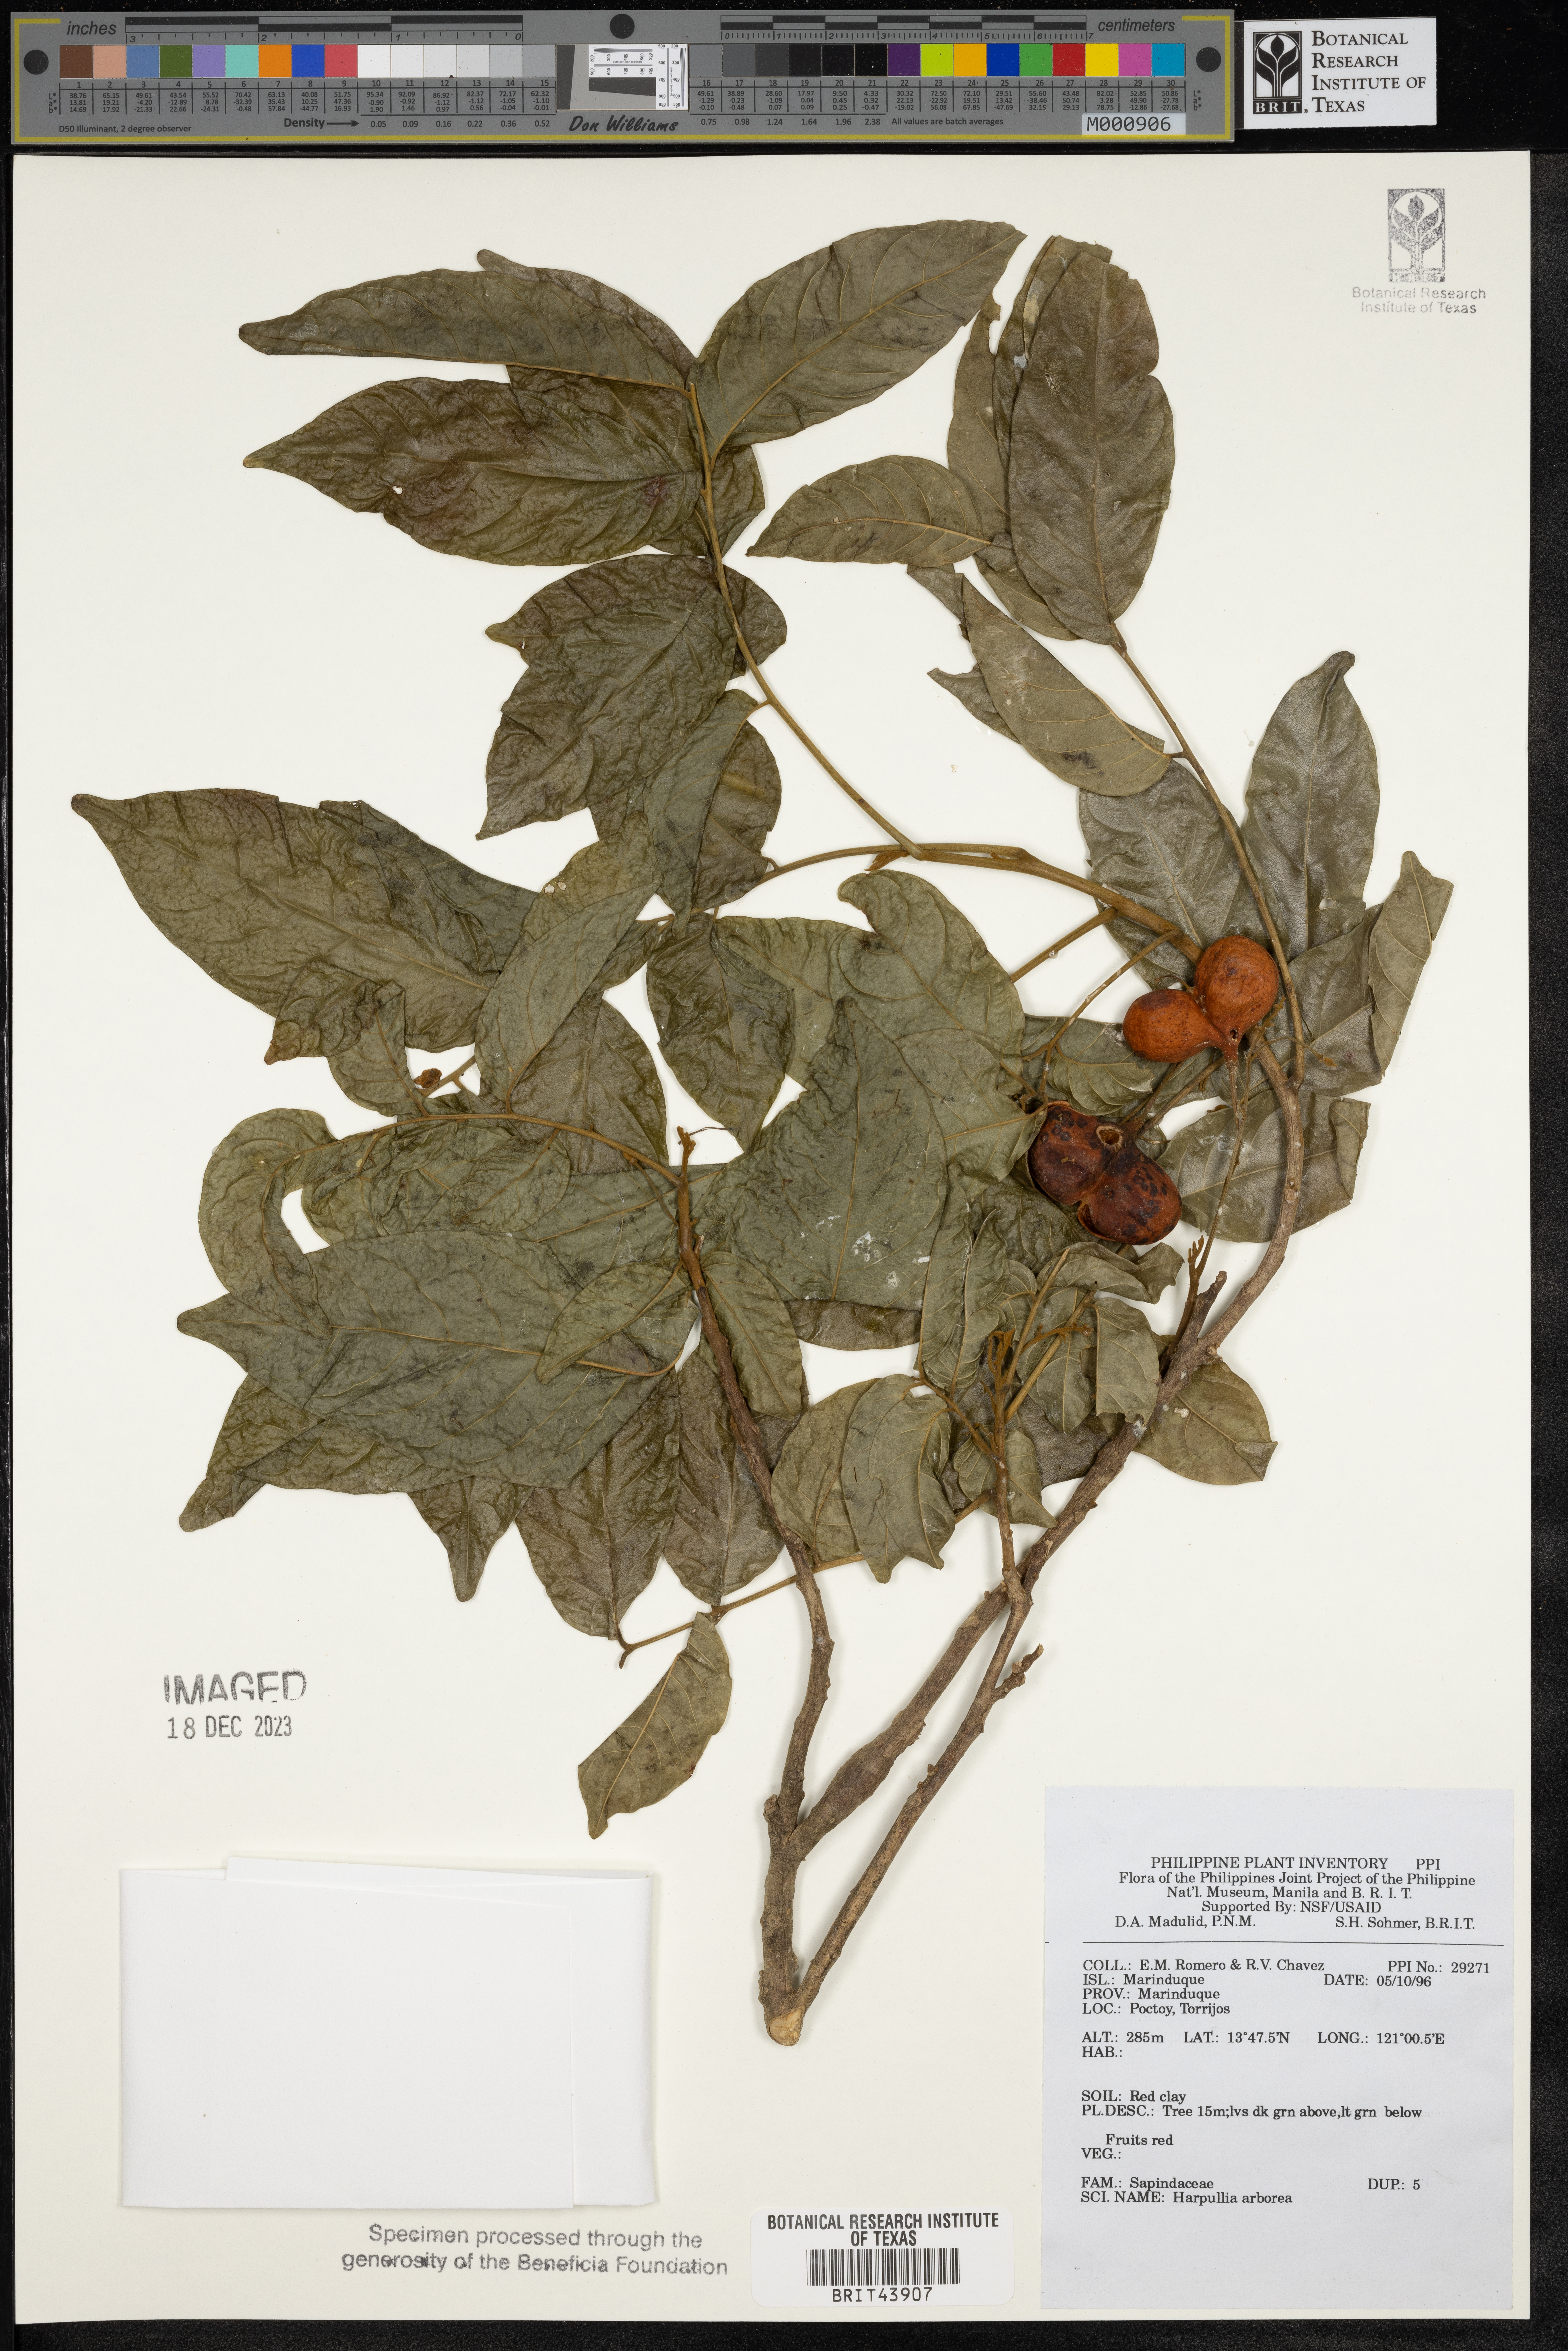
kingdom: Plantae
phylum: Tracheophyta
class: Magnoliopsida
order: Sapindales
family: Sapindaceae
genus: Harpullia
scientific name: Harpullia arborea
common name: Tulip-wood tree
